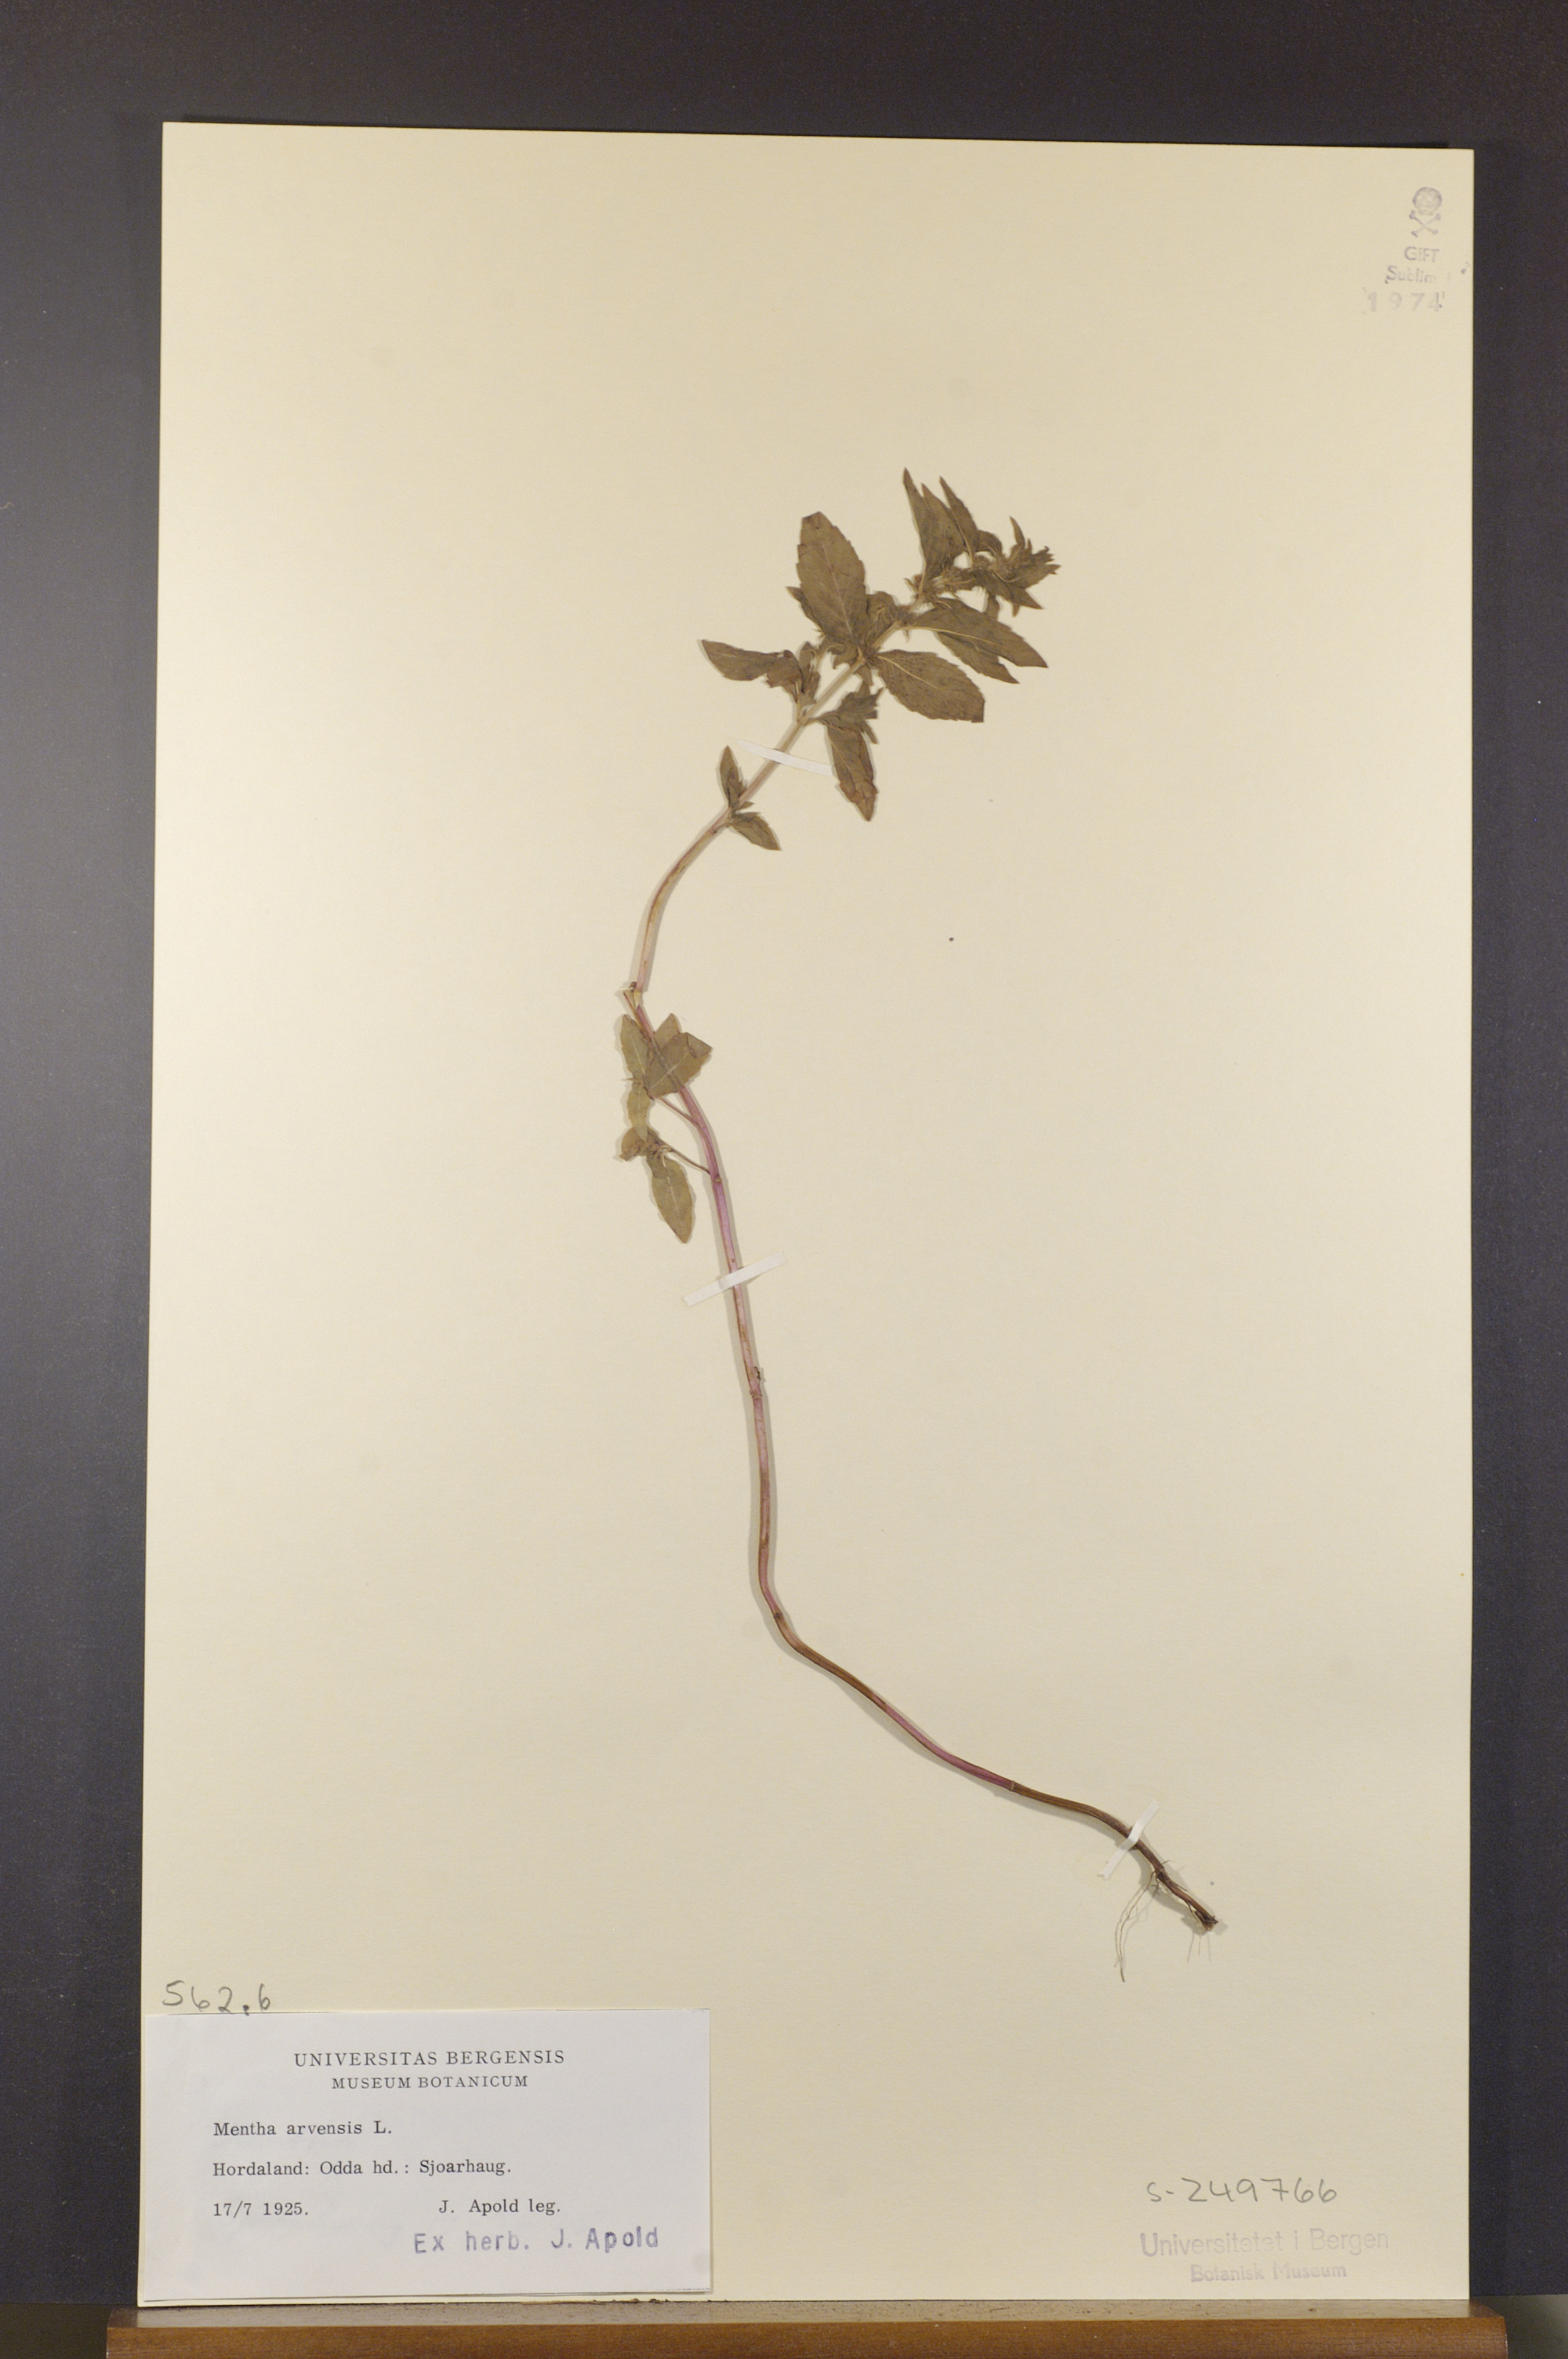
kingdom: Plantae
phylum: Tracheophyta
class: Magnoliopsida
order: Lamiales
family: Lamiaceae
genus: Mentha
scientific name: Mentha arvensis
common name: Corn mint
